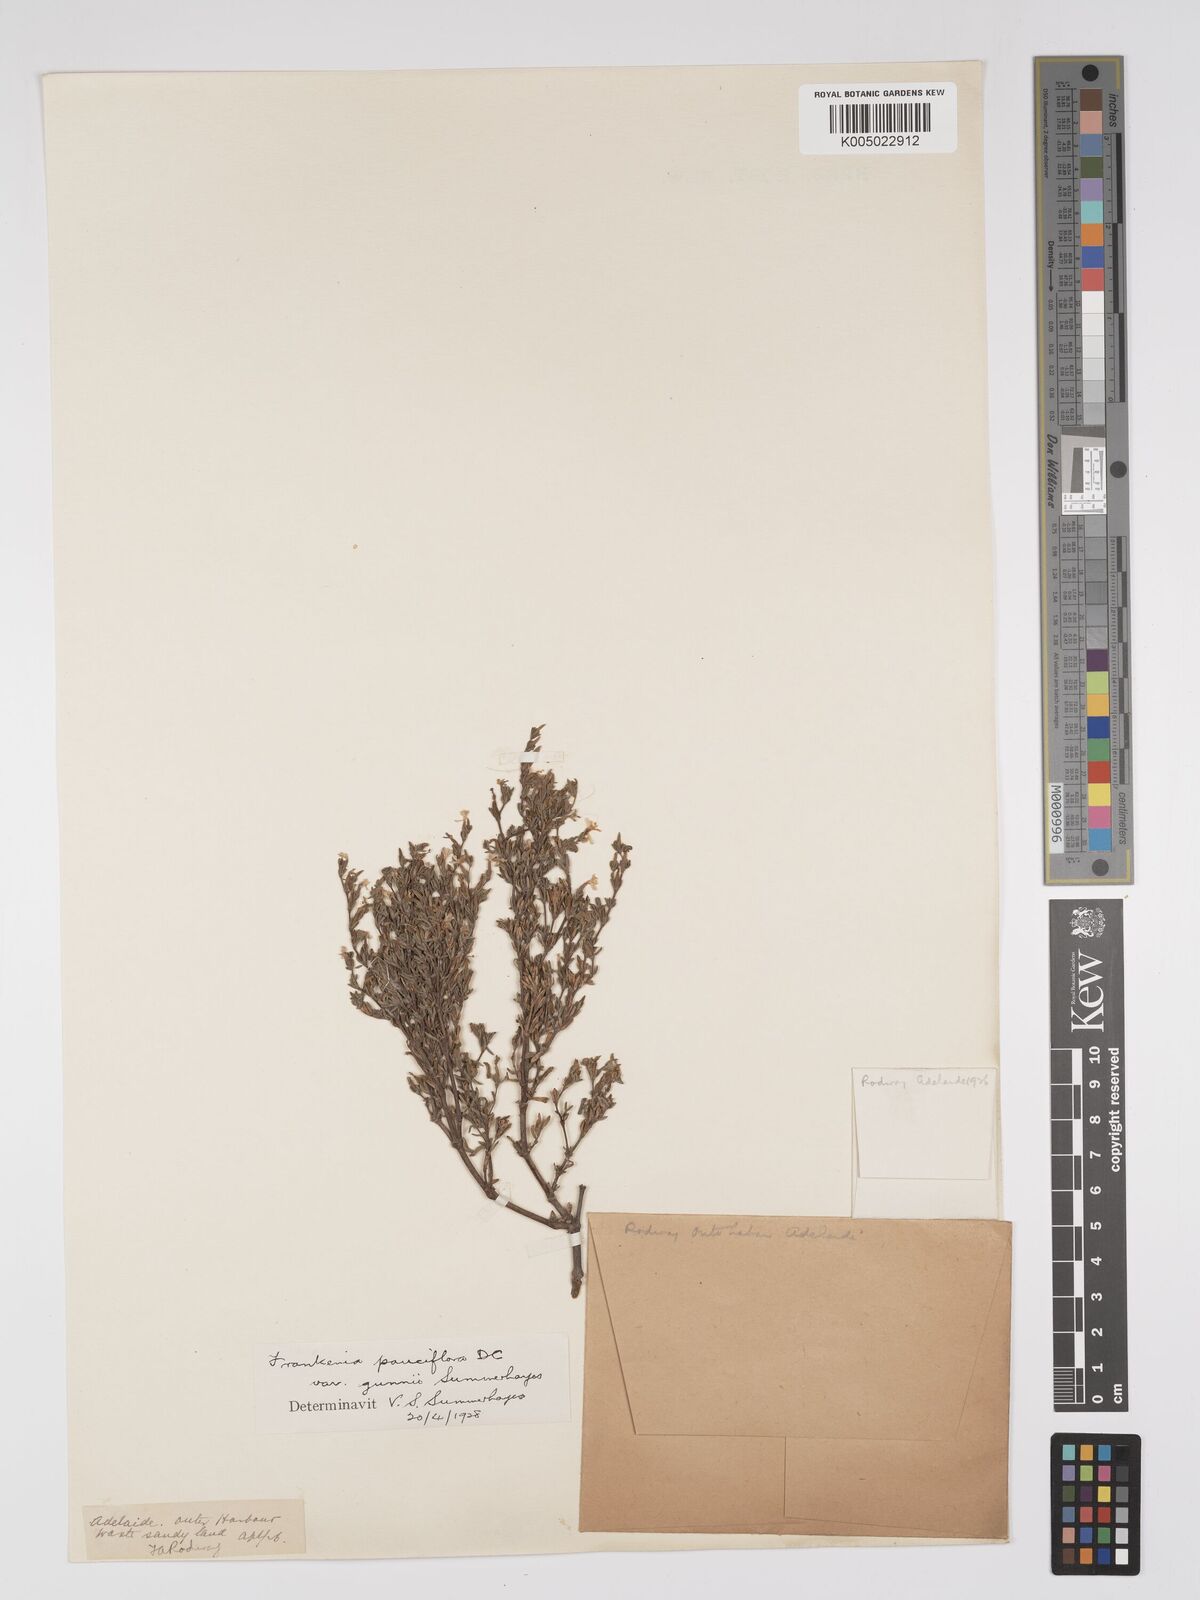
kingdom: Plantae
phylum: Tracheophyta
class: Magnoliopsida
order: Caryophyllales
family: Frankeniaceae
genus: Frankenia
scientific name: Frankenia pauciflora
